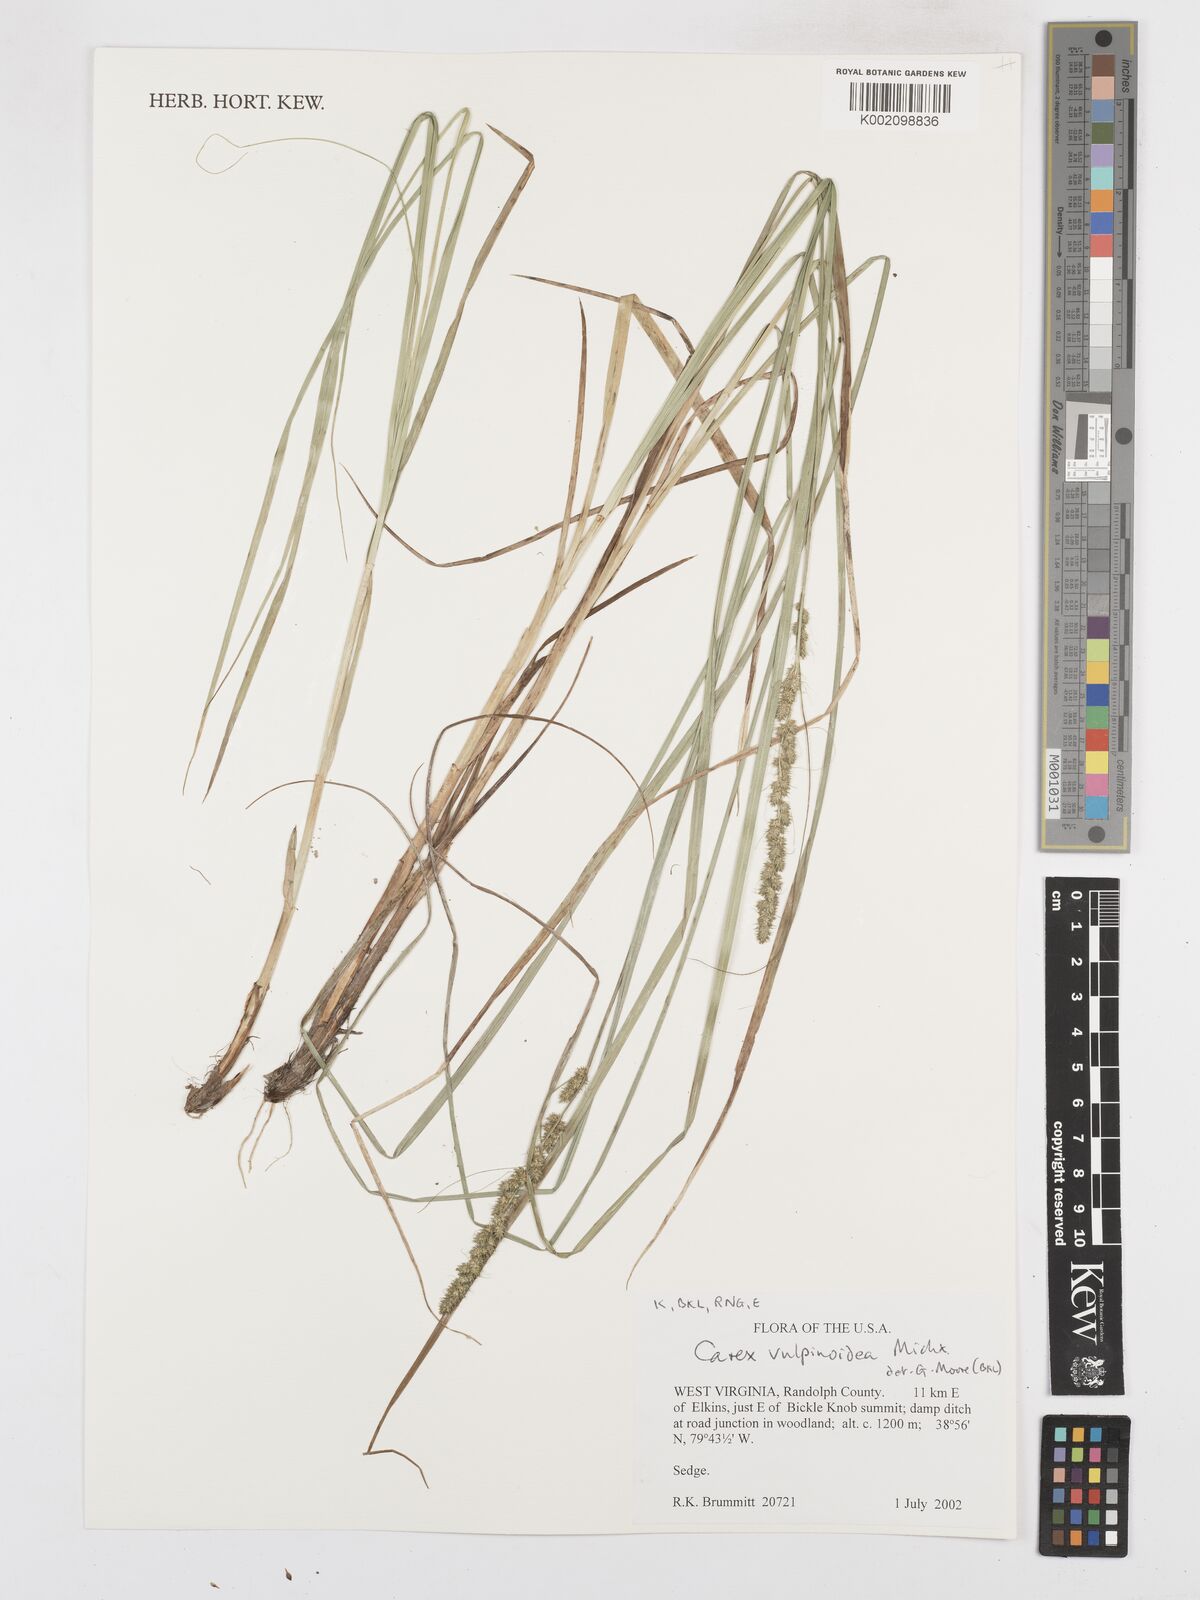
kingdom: Plantae
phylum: Tracheophyta
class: Liliopsida
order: Poales
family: Cyperaceae
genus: Carex
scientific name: Carex triangularis
